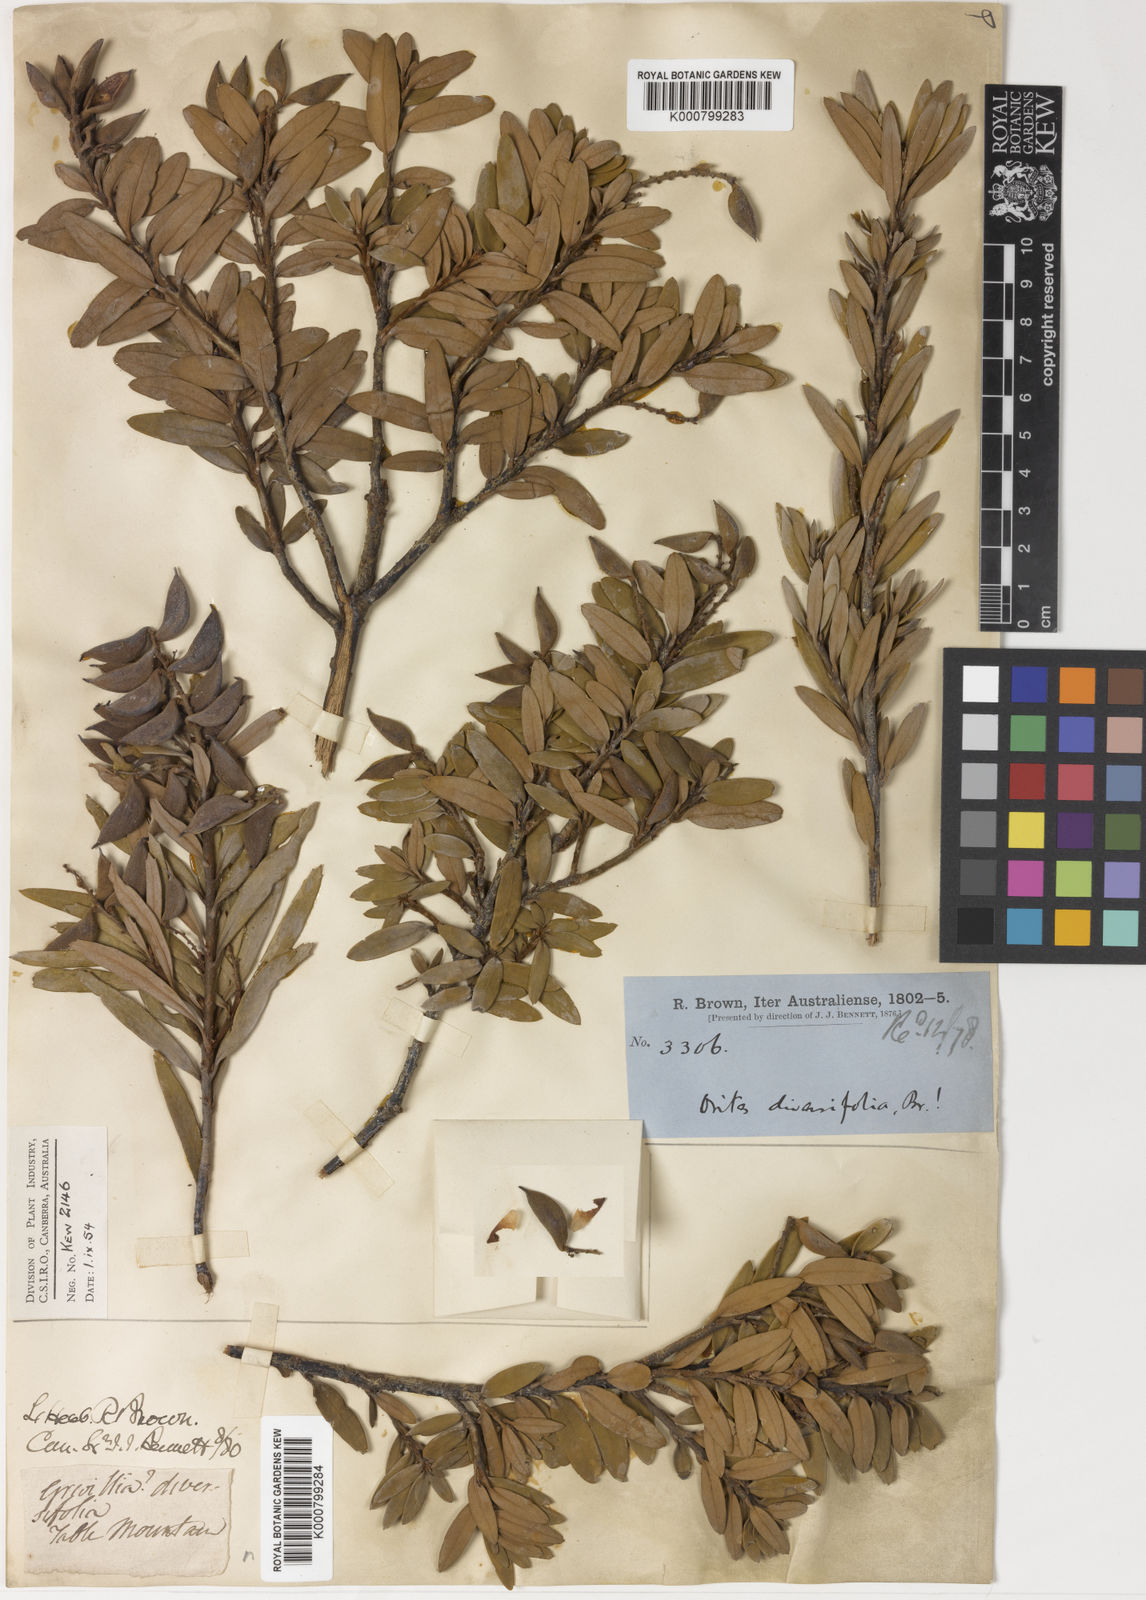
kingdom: Plantae
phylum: Tracheophyta
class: Magnoliopsida
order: Proteales
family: Proteaceae
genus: Orites
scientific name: Orites diversifolius
